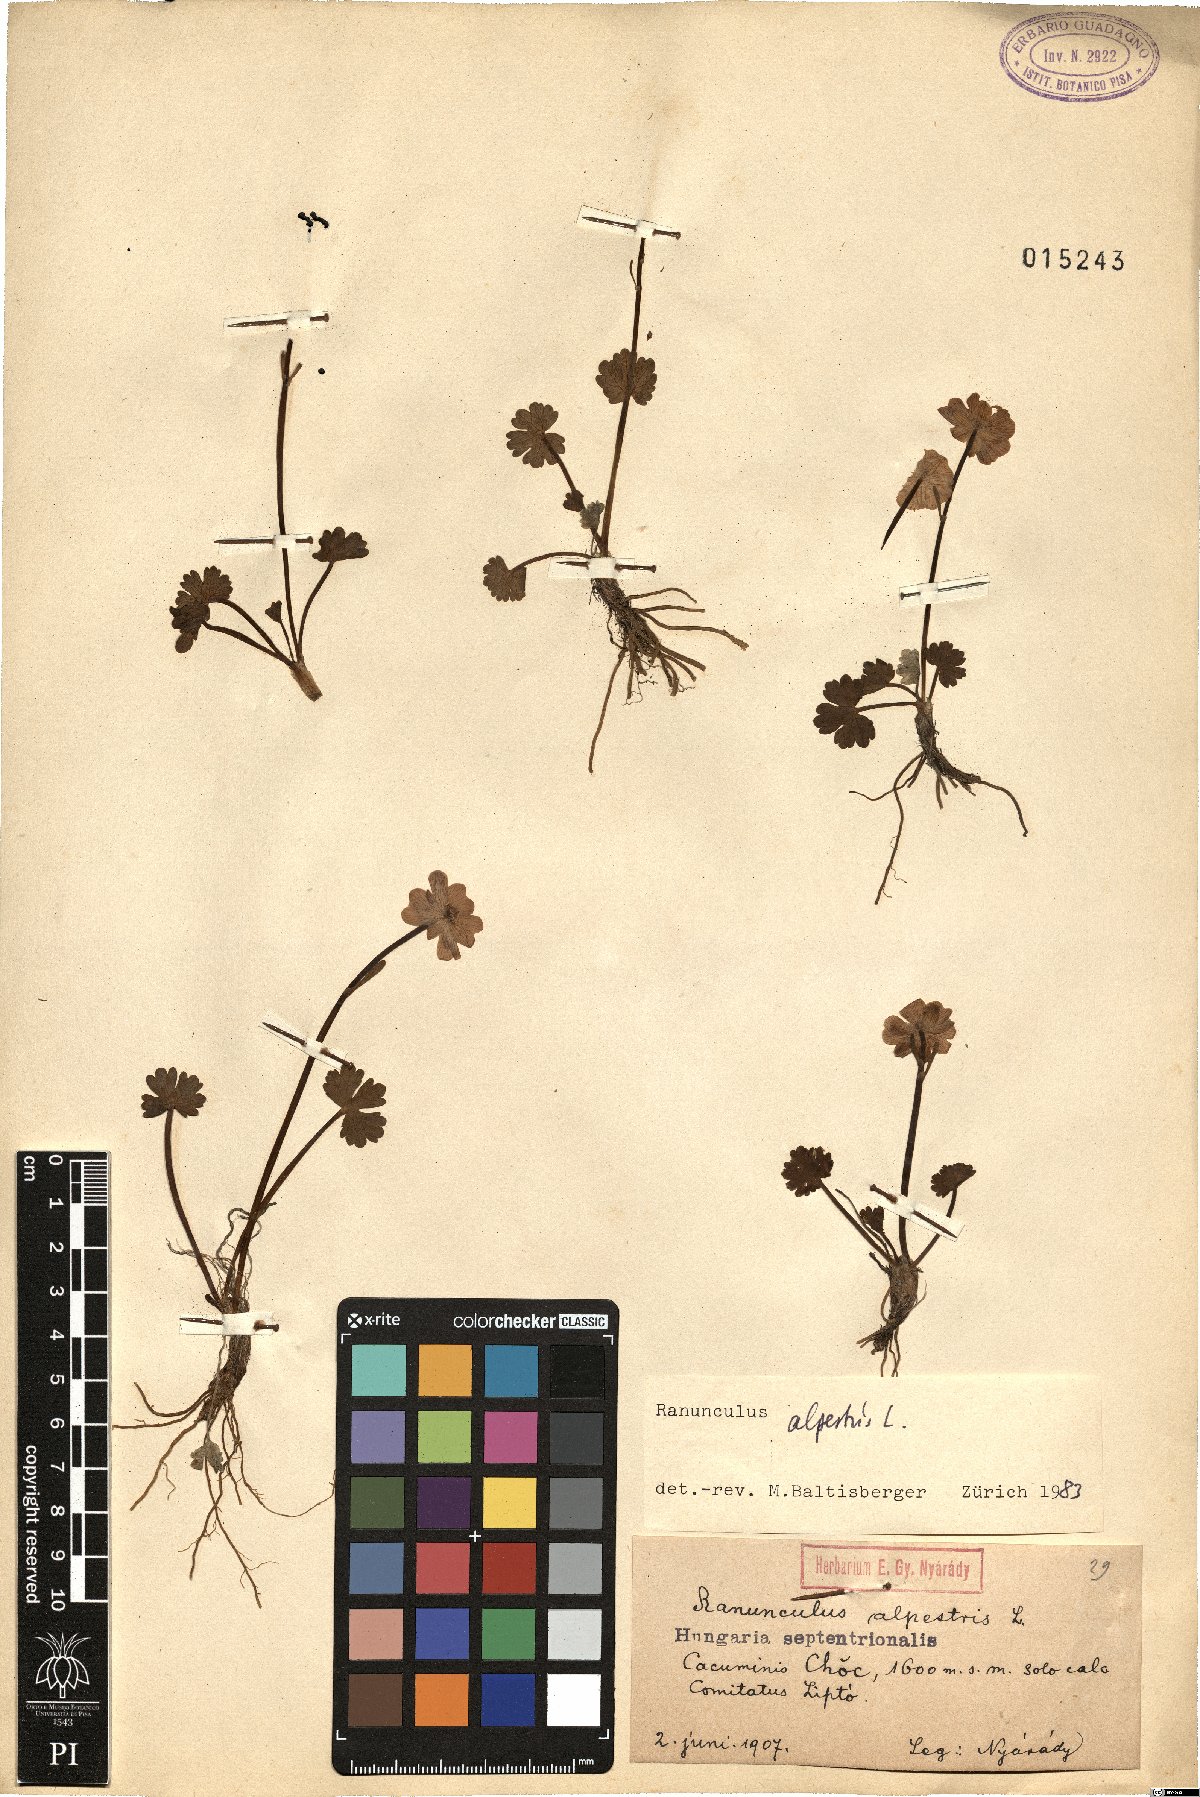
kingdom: Plantae
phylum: Tracheophyta
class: Magnoliopsida
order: Ranunculales
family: Ranunculaceae
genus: Ranunculus
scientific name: Ranunculus alpestris
